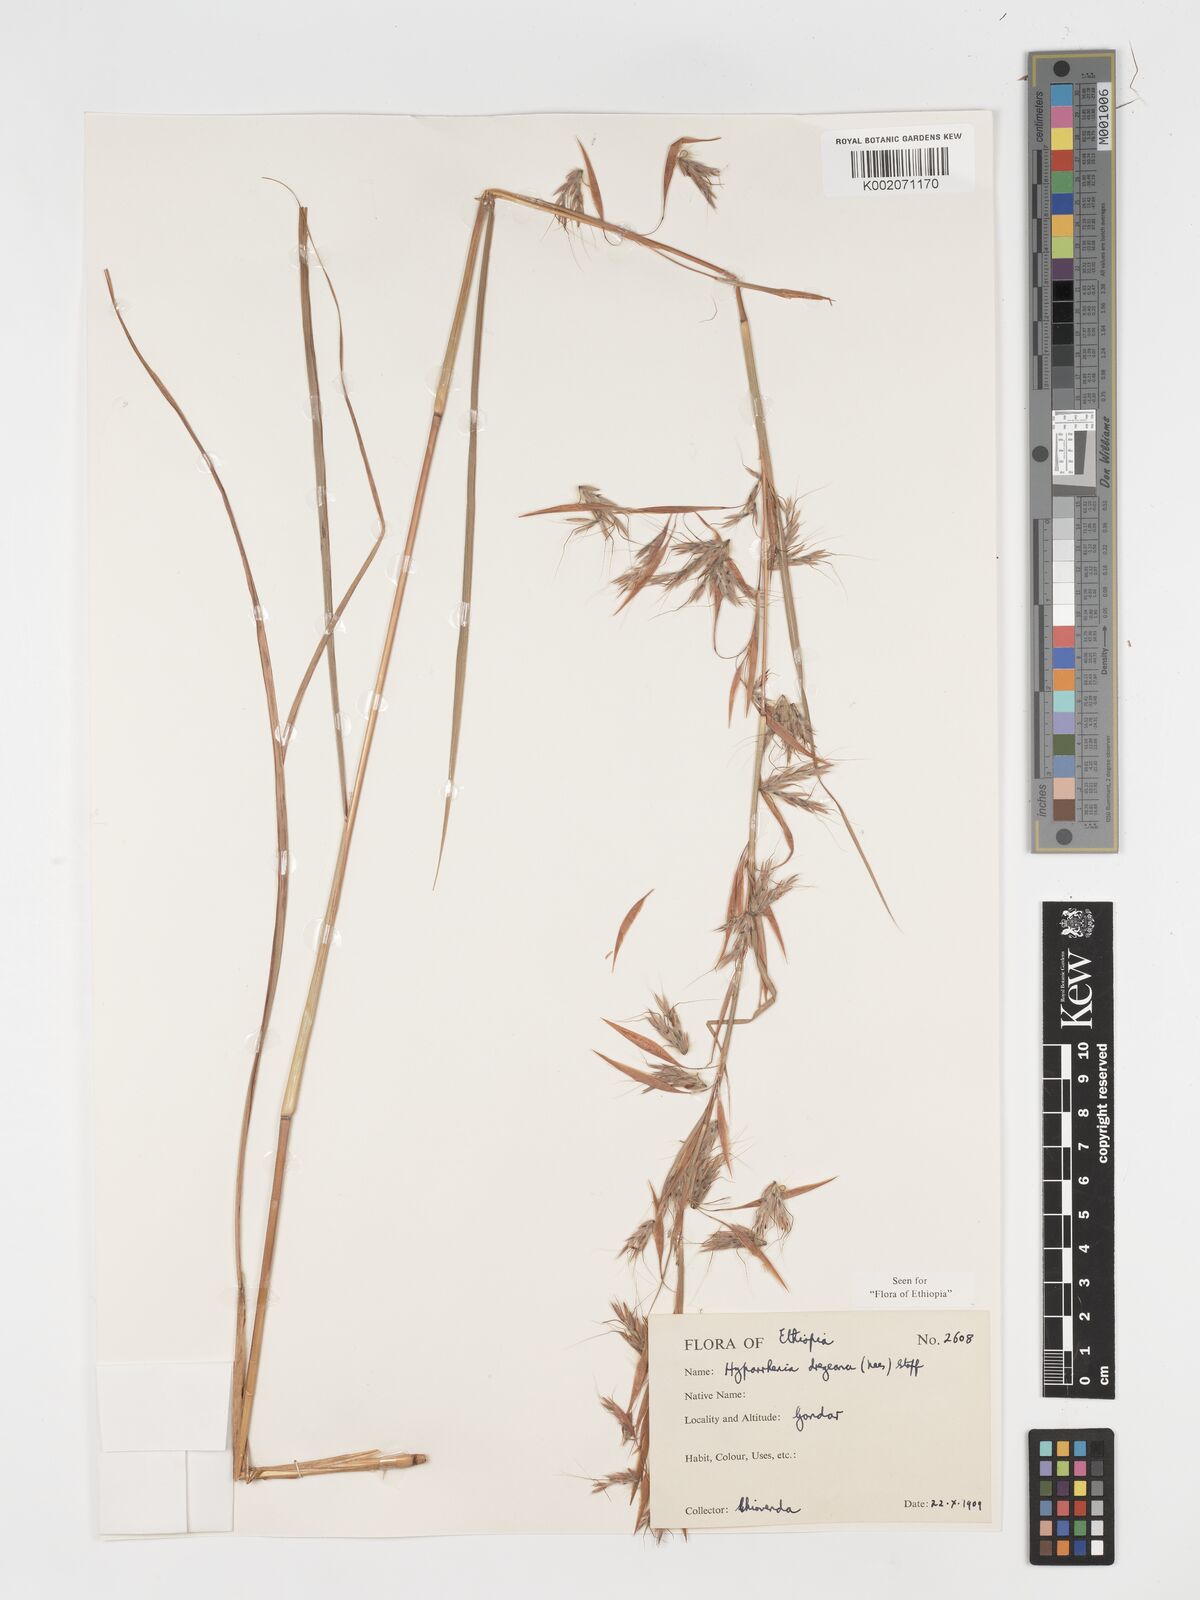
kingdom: Plantae
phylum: Tracheophyta
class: Liliopsida
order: Poales
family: Poaceae
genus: Hyparrhenia
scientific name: Hyparrhenia dregeana
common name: Silky thatching grass
